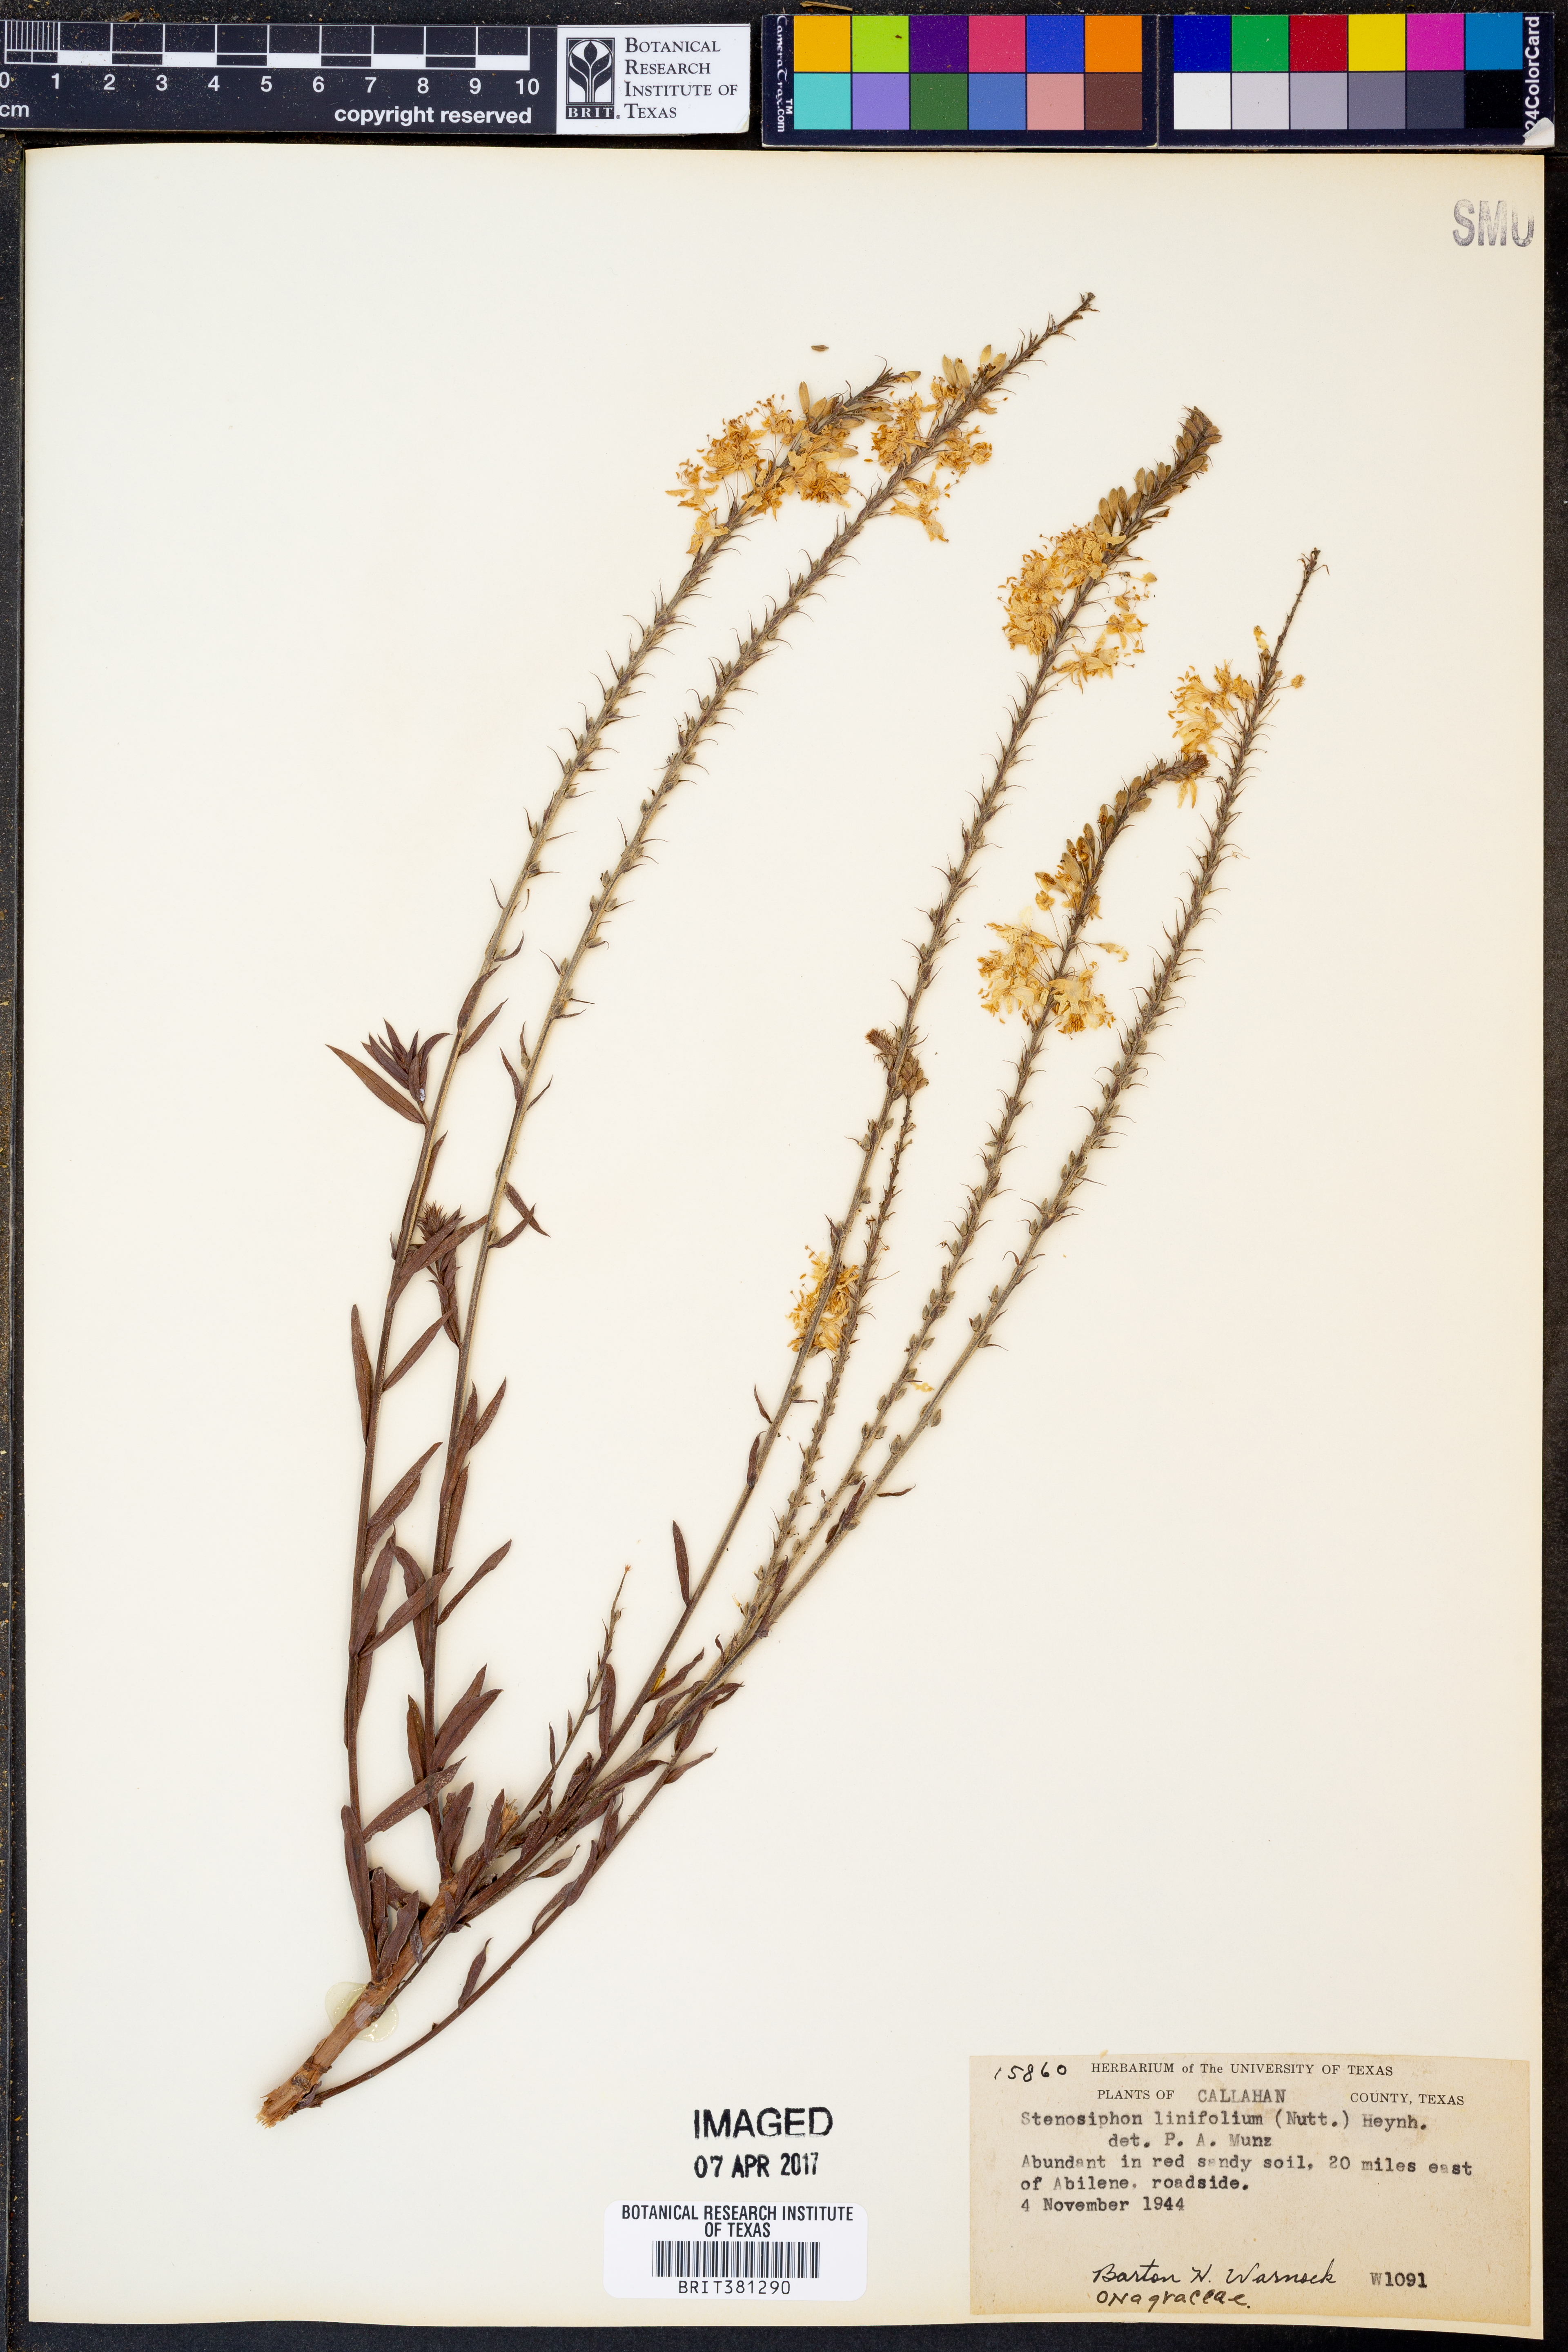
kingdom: Plantae
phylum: Tracheophyta
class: Magnoliopsida
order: Myrtales
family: Onagraceae
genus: Oenothera
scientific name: Oenothera glaucifolia
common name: False gaura
